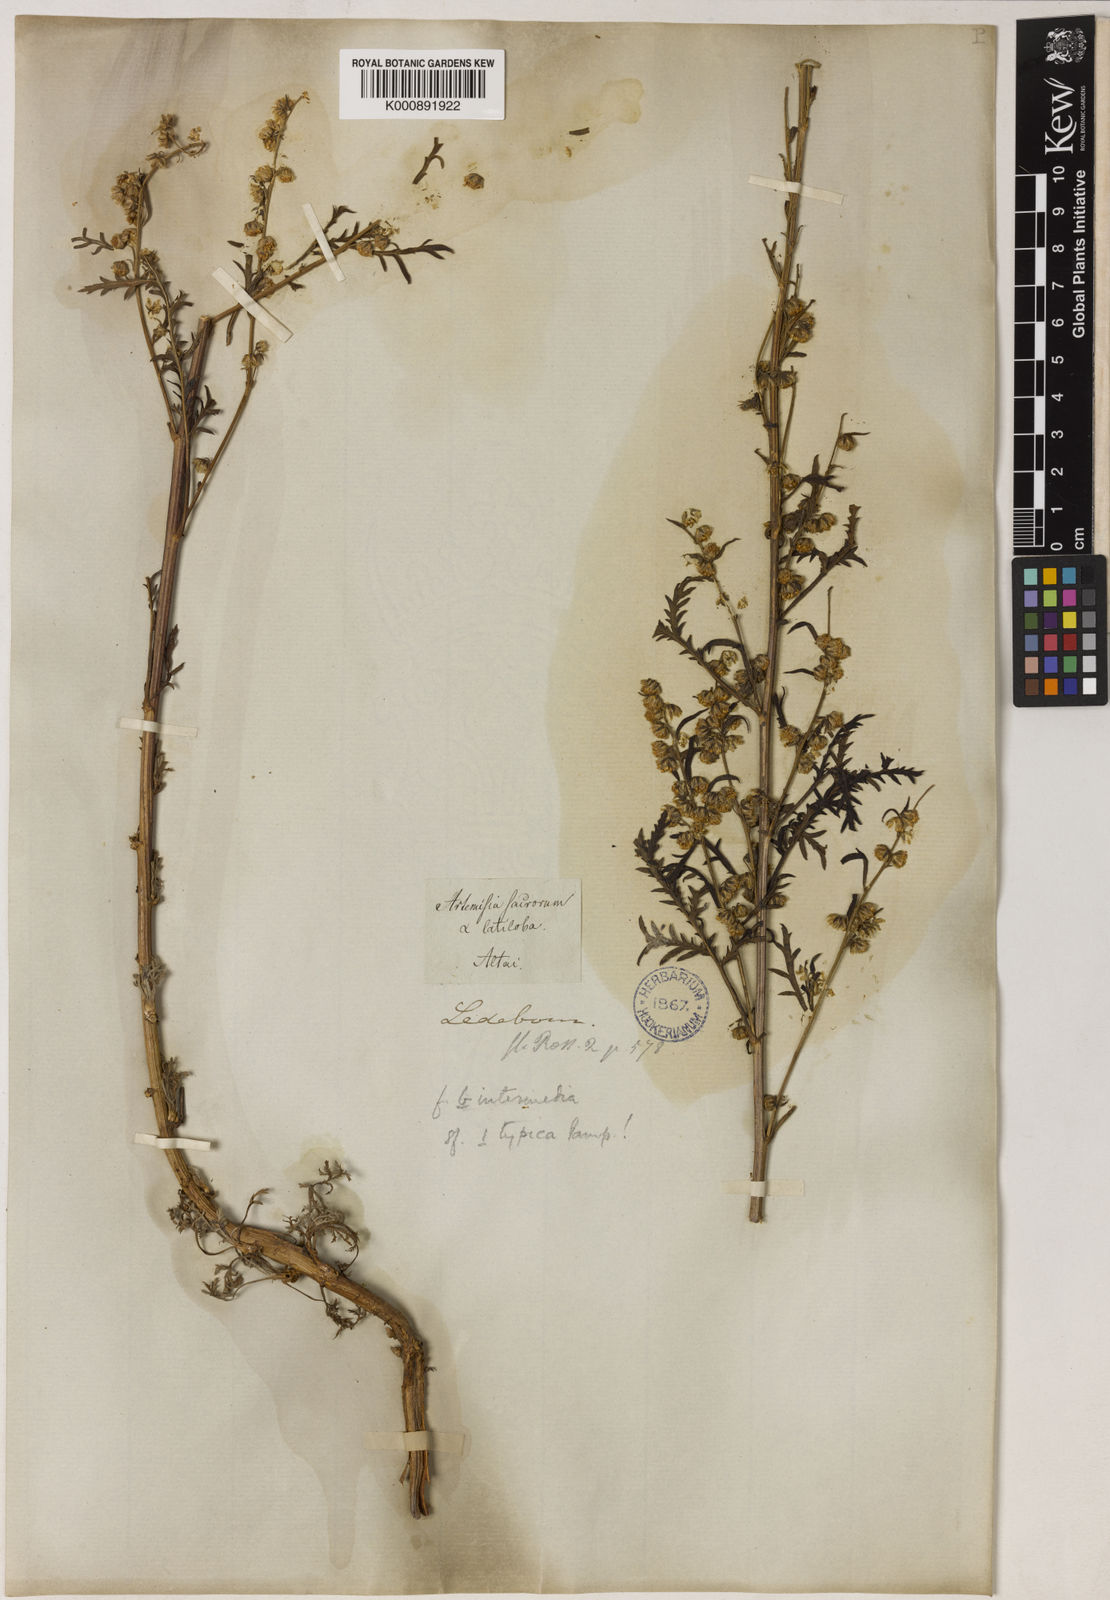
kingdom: Plantae
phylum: Tracheophyta
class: Magnoliopsida
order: Asterales
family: Asteraceae
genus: Artemisia
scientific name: Artemisia gmelinii
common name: Gmelin's wormwood
